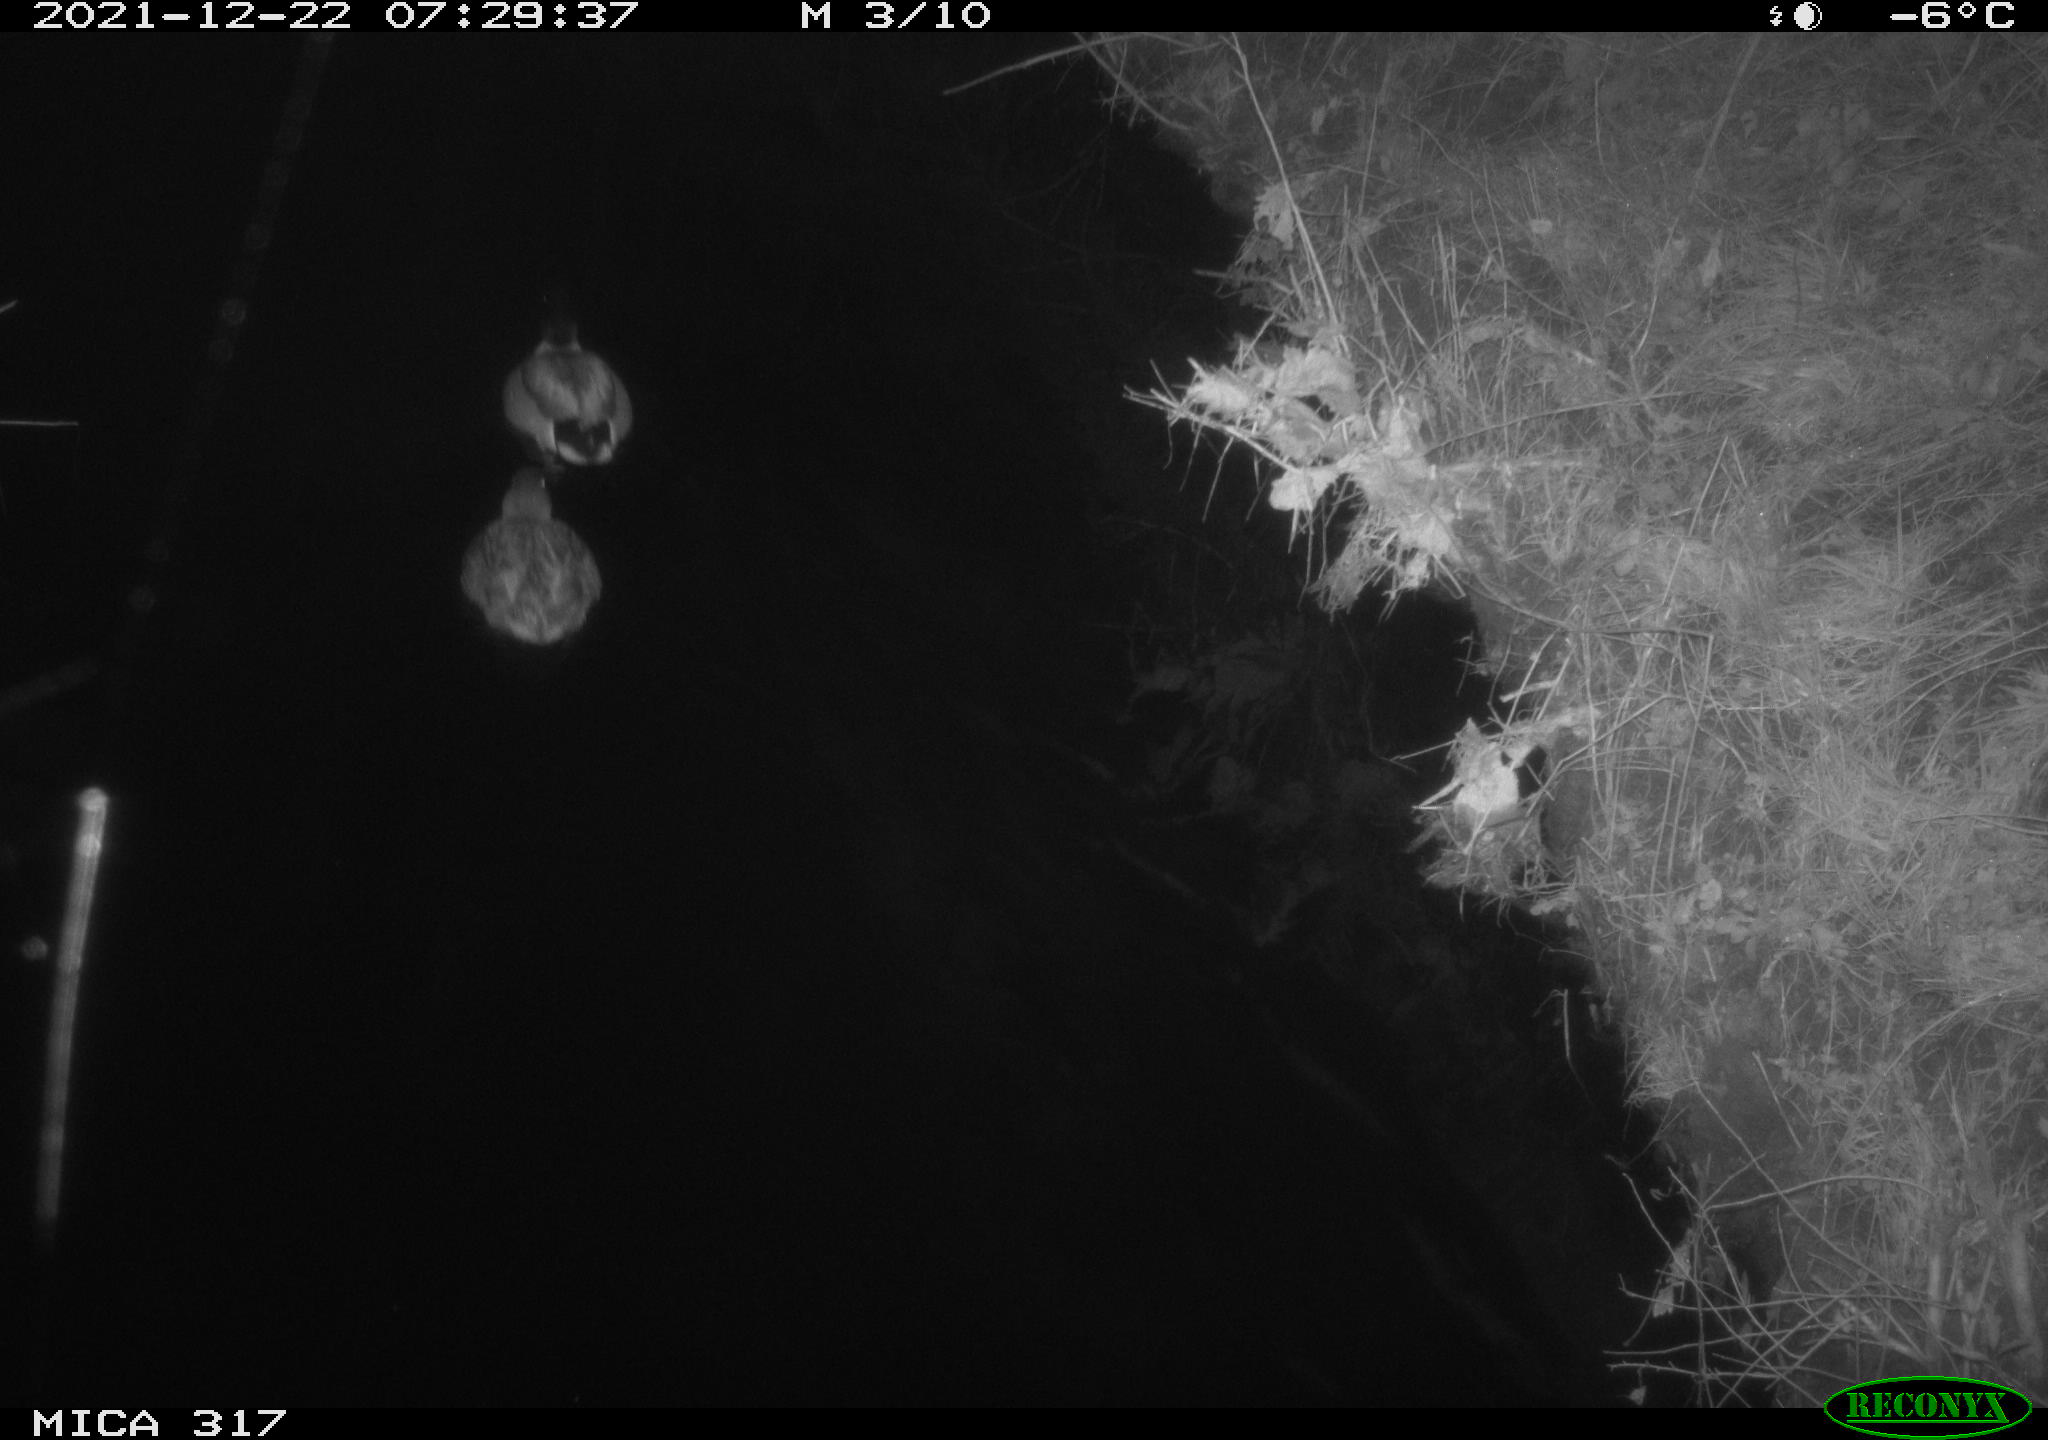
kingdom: Animalia
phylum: Chordata
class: Aves
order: Anseriformes
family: Anatidae
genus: Anas
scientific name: Anas platyrhynchos
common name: Mallard
